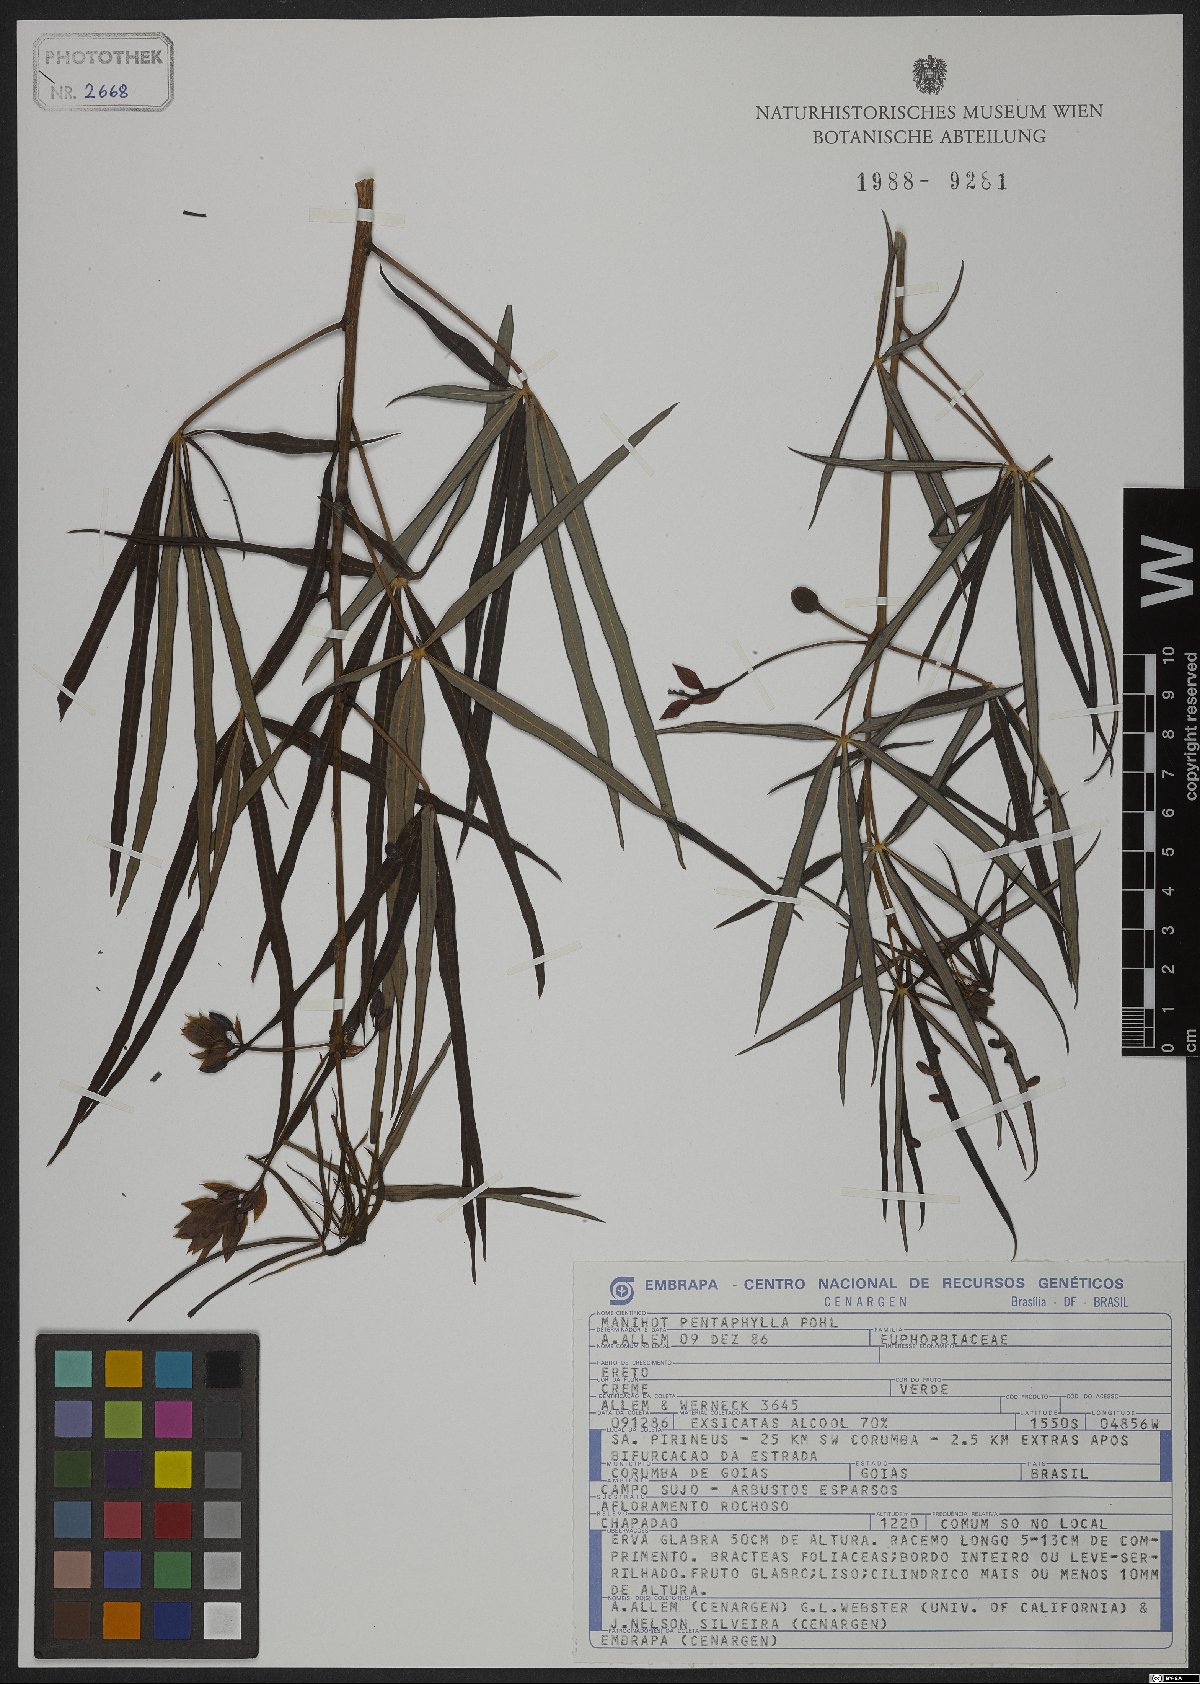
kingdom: Plantae
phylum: Tracheophyta
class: Magnoliopsida
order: Malpighiales
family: Euphorbiaceae
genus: Manihot
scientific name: Manihot pentaphylla
